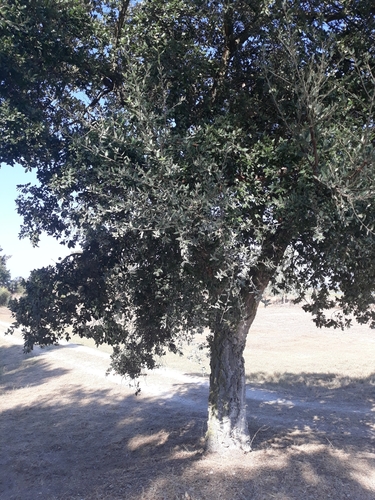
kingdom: Plantae
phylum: Tracheophyta
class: Magnoliopsida
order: Fagales
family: Fagaceae
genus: Quercus
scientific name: Quercus suber
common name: Cork oak
